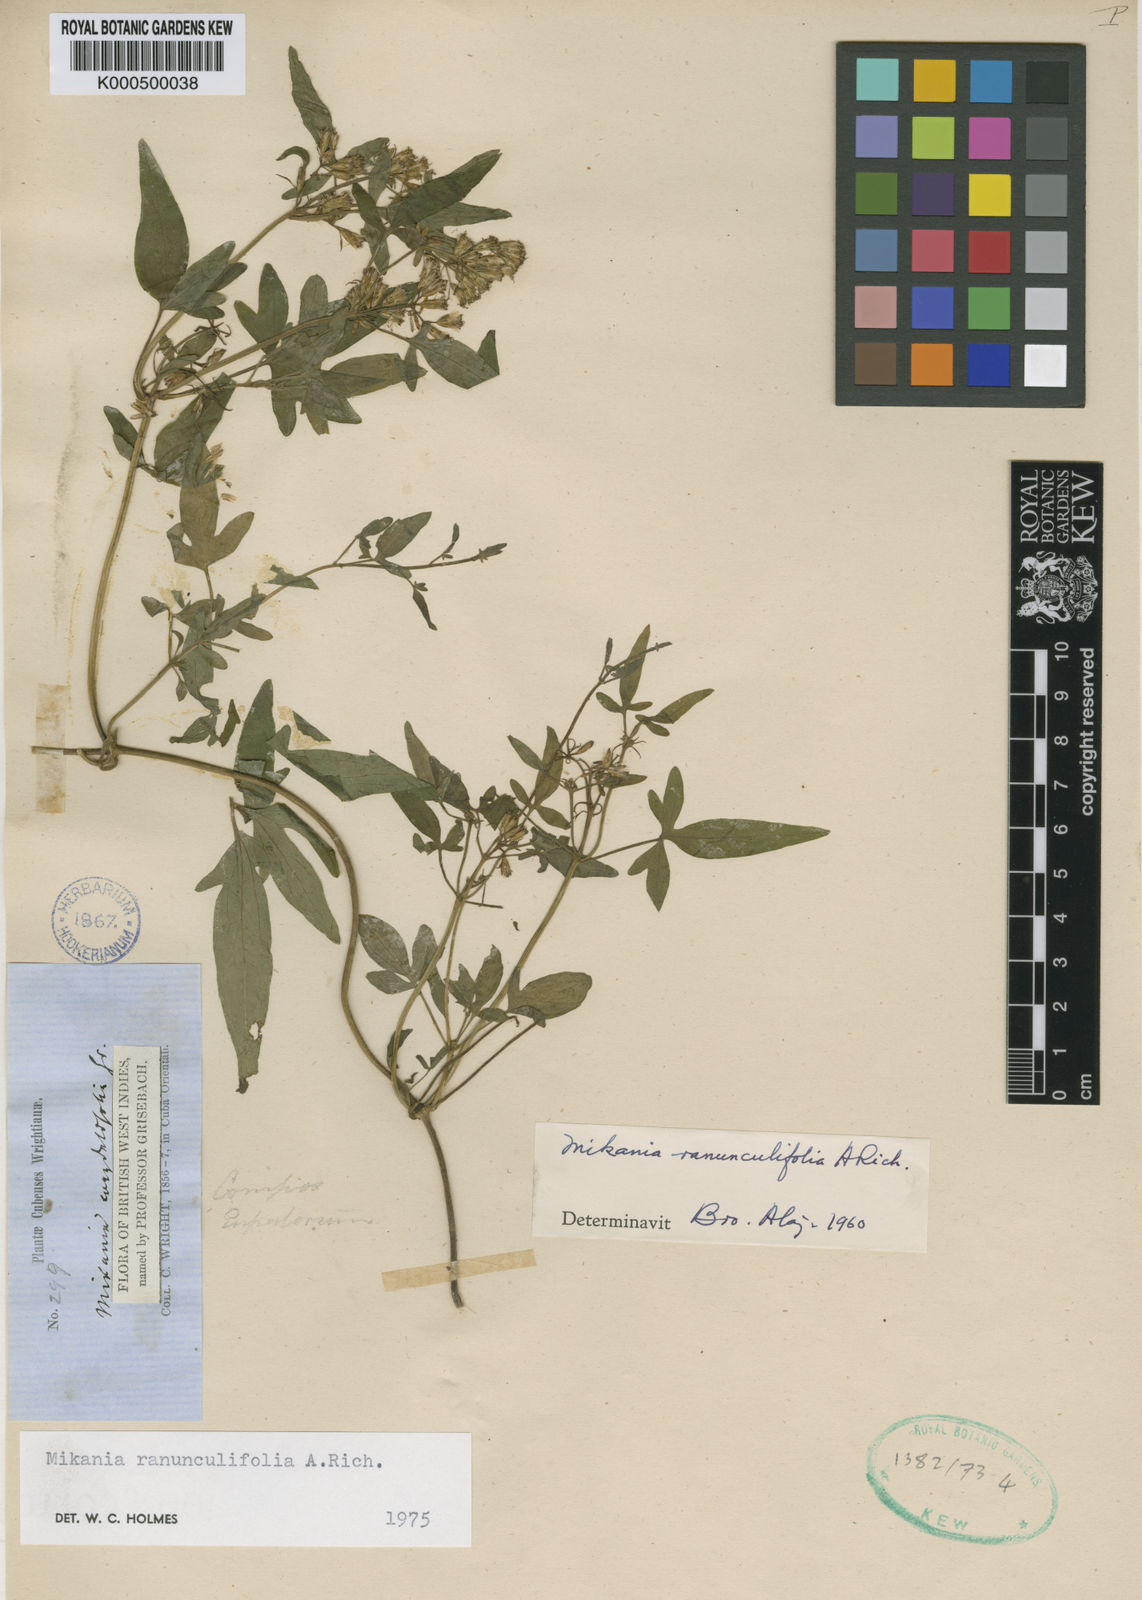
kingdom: Plantae
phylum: Tracheophyta
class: Magnoliopsida
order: Asterales
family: Asteraceae
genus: Mikania
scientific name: Mikania
